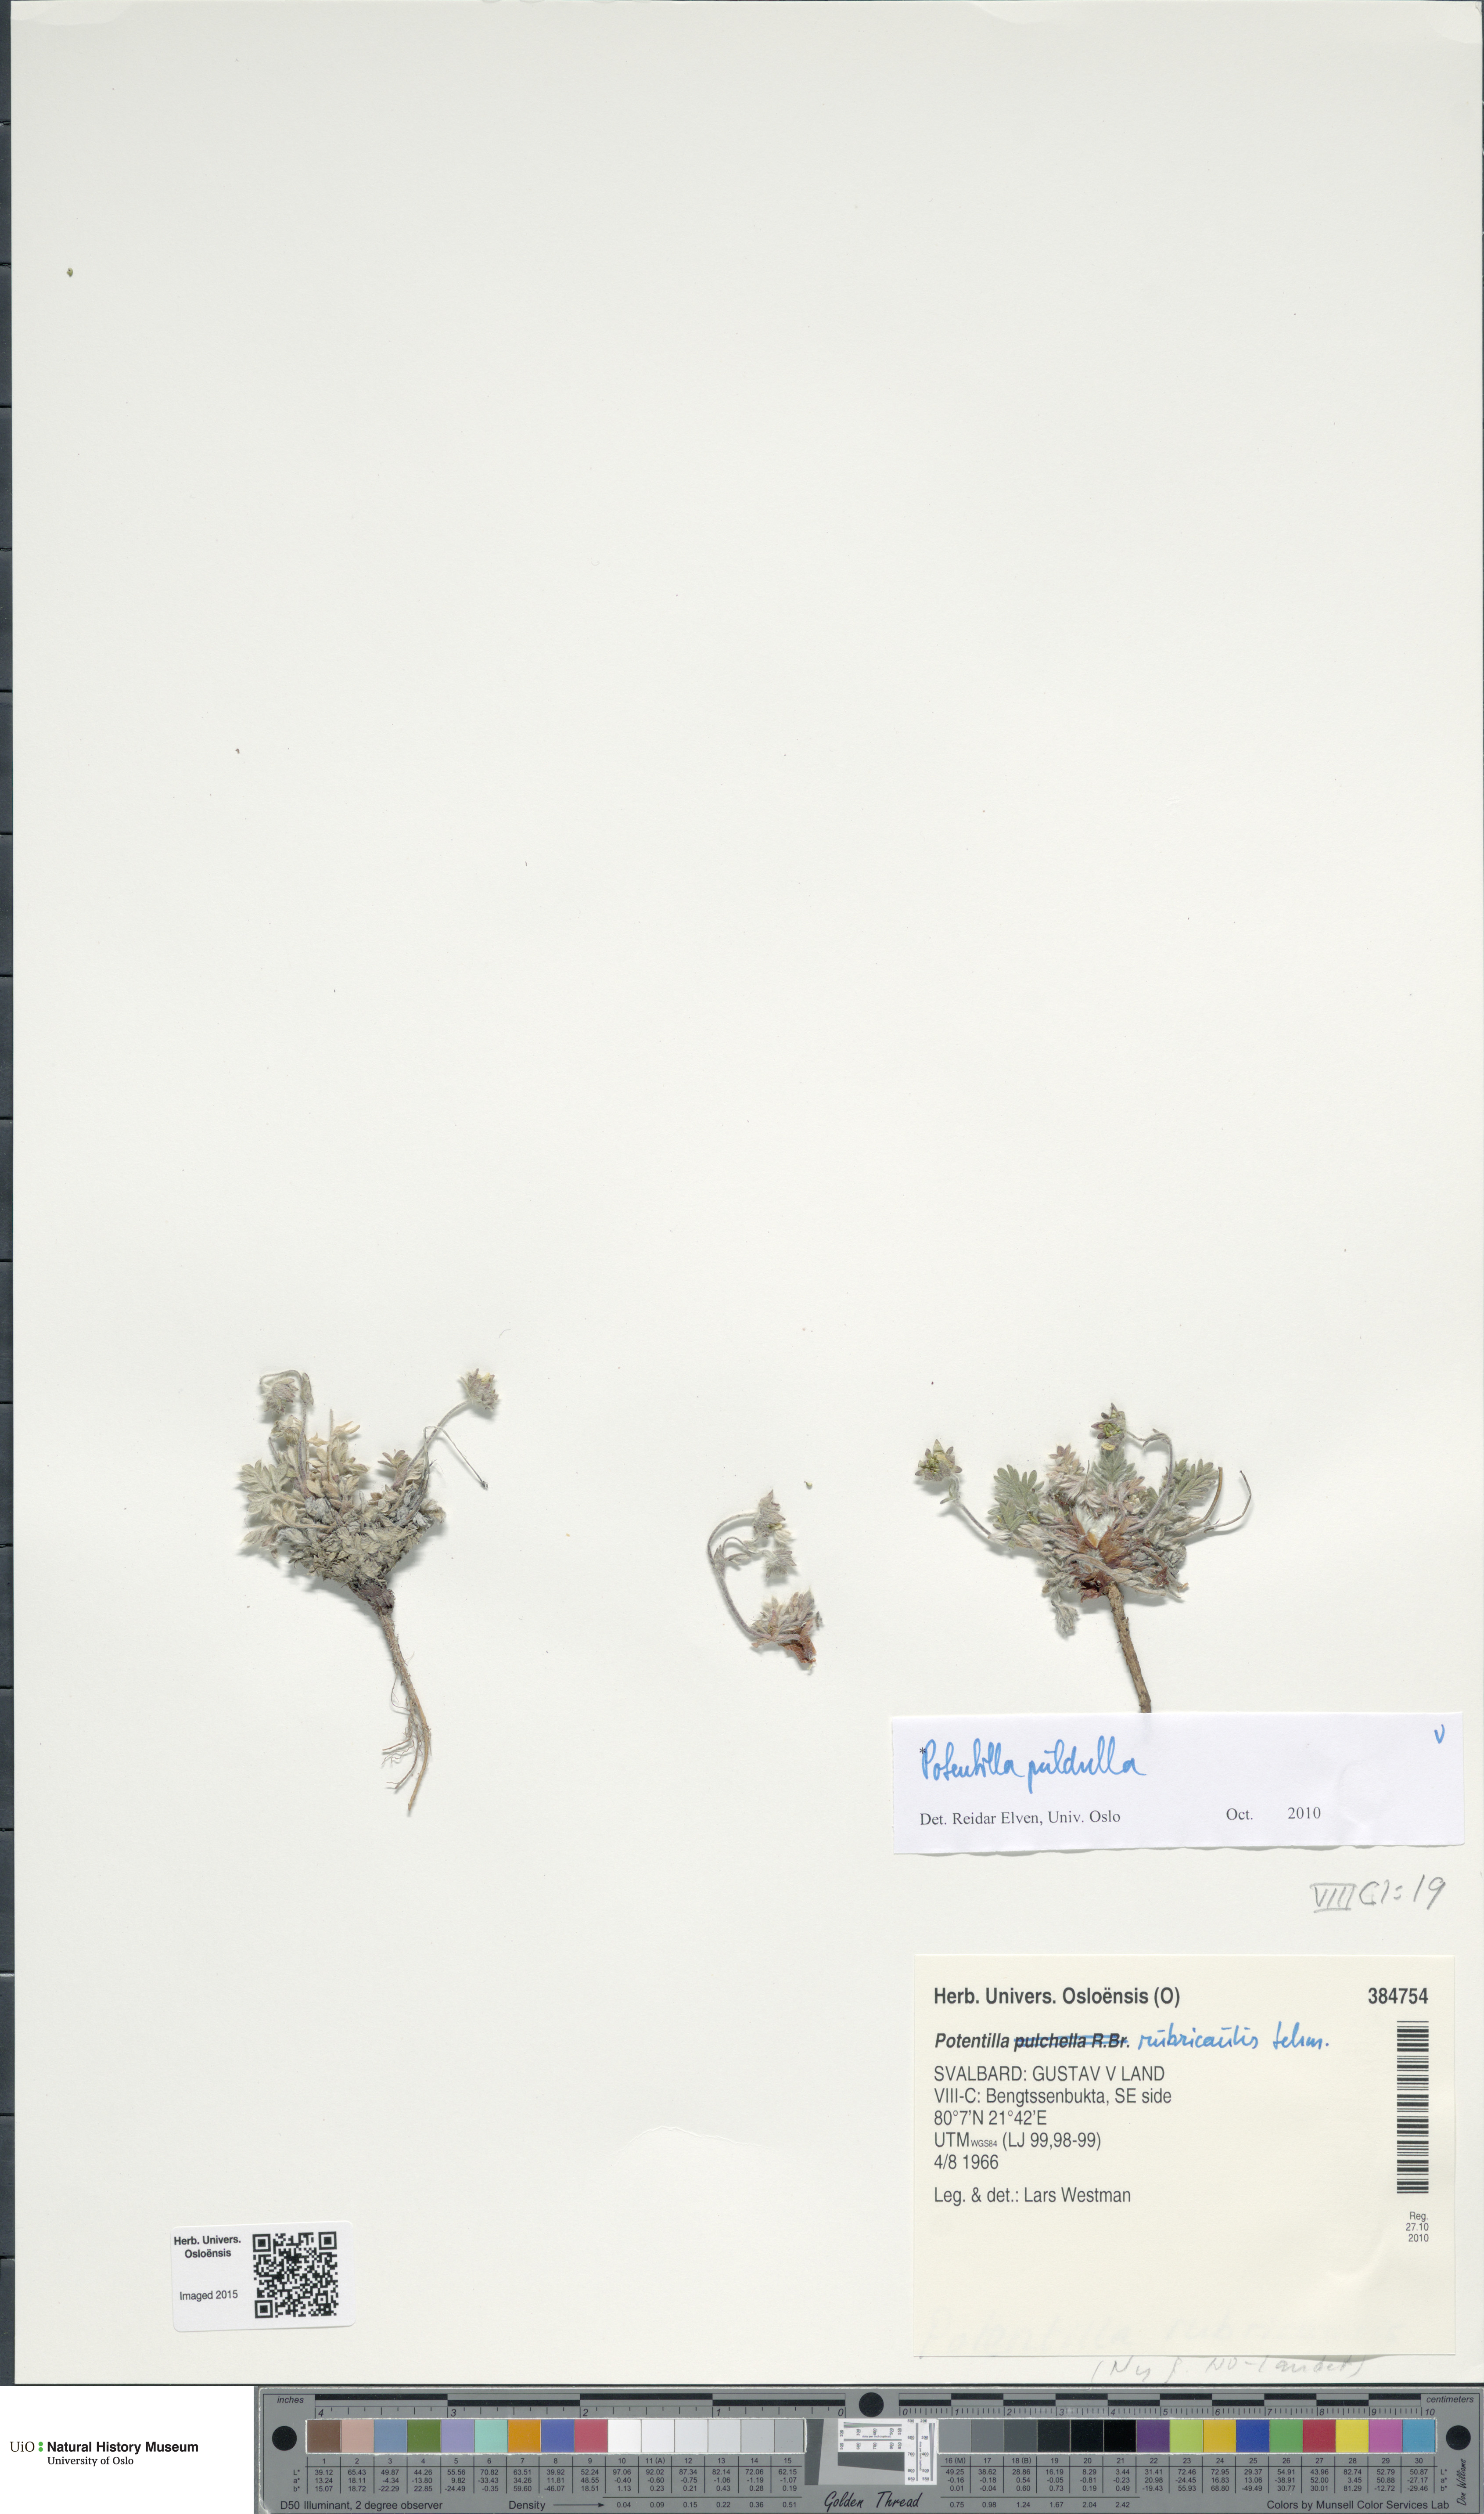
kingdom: Plantae
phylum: Tracheophyta
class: Magnoliopsida
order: Rosales
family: Rosaceae
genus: Potentilla
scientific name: Potentilla pulchella
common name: Pretty cinquefoil
